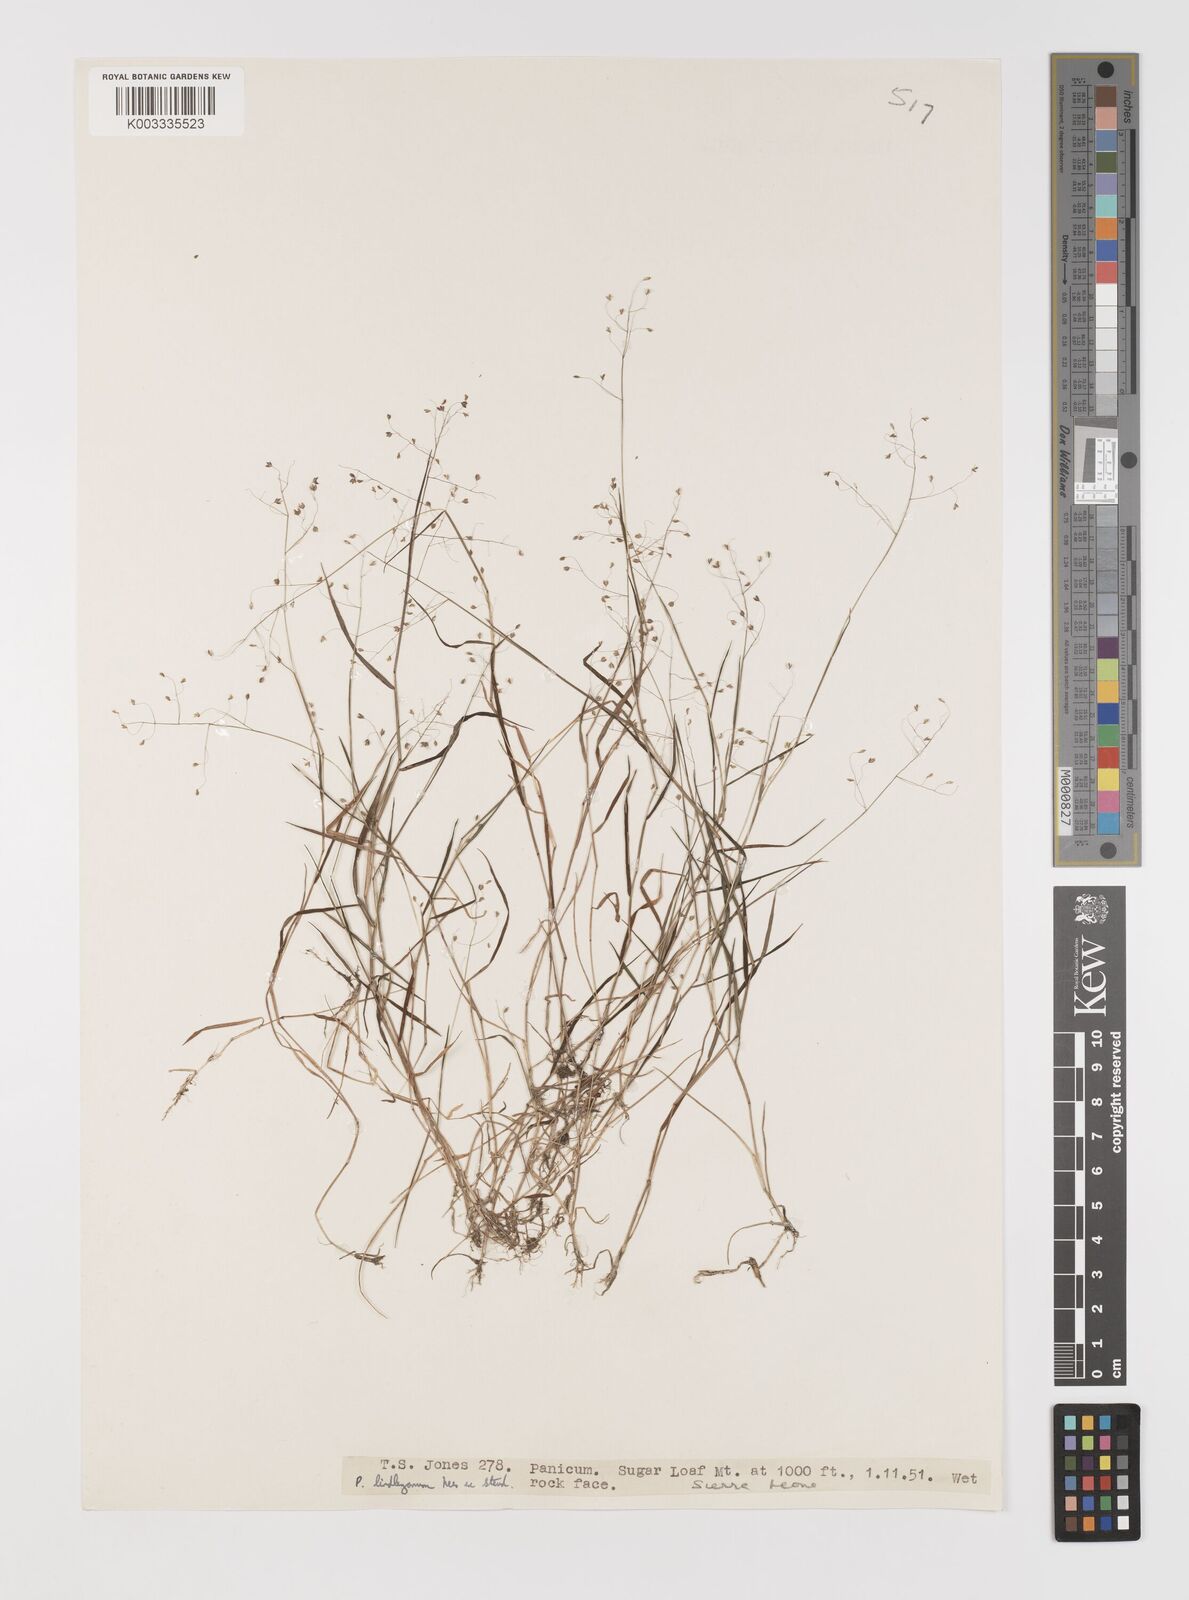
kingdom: Plantae
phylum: Tracheophyta
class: Liliopsida
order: Poales
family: Poaceae
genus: Trichanthecium
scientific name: Trichanthecium tenellum
